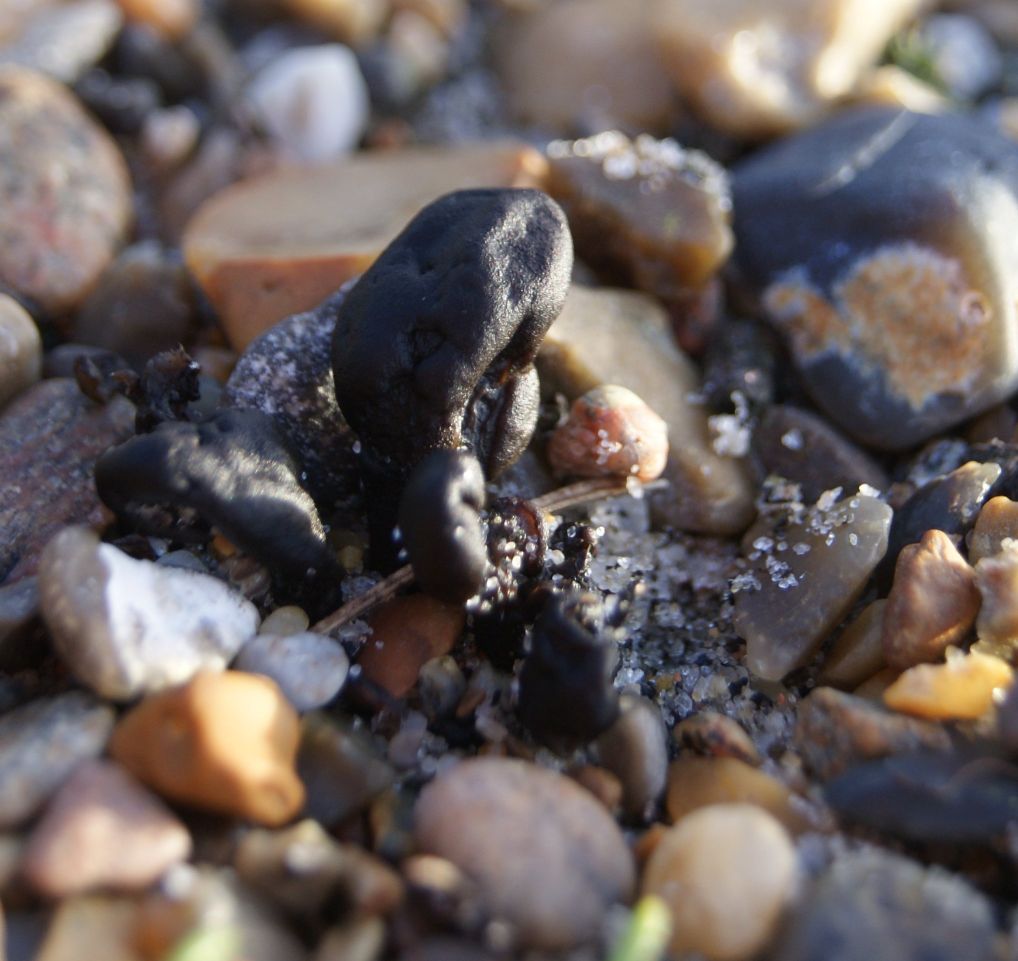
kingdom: Fungi
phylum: Ascomycota
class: Geoglossomycetes
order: Geoglossales
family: Geoglossaceae
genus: Sabuloglossum
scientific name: Sabuloglossum arenarium
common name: klit-jordtunge
